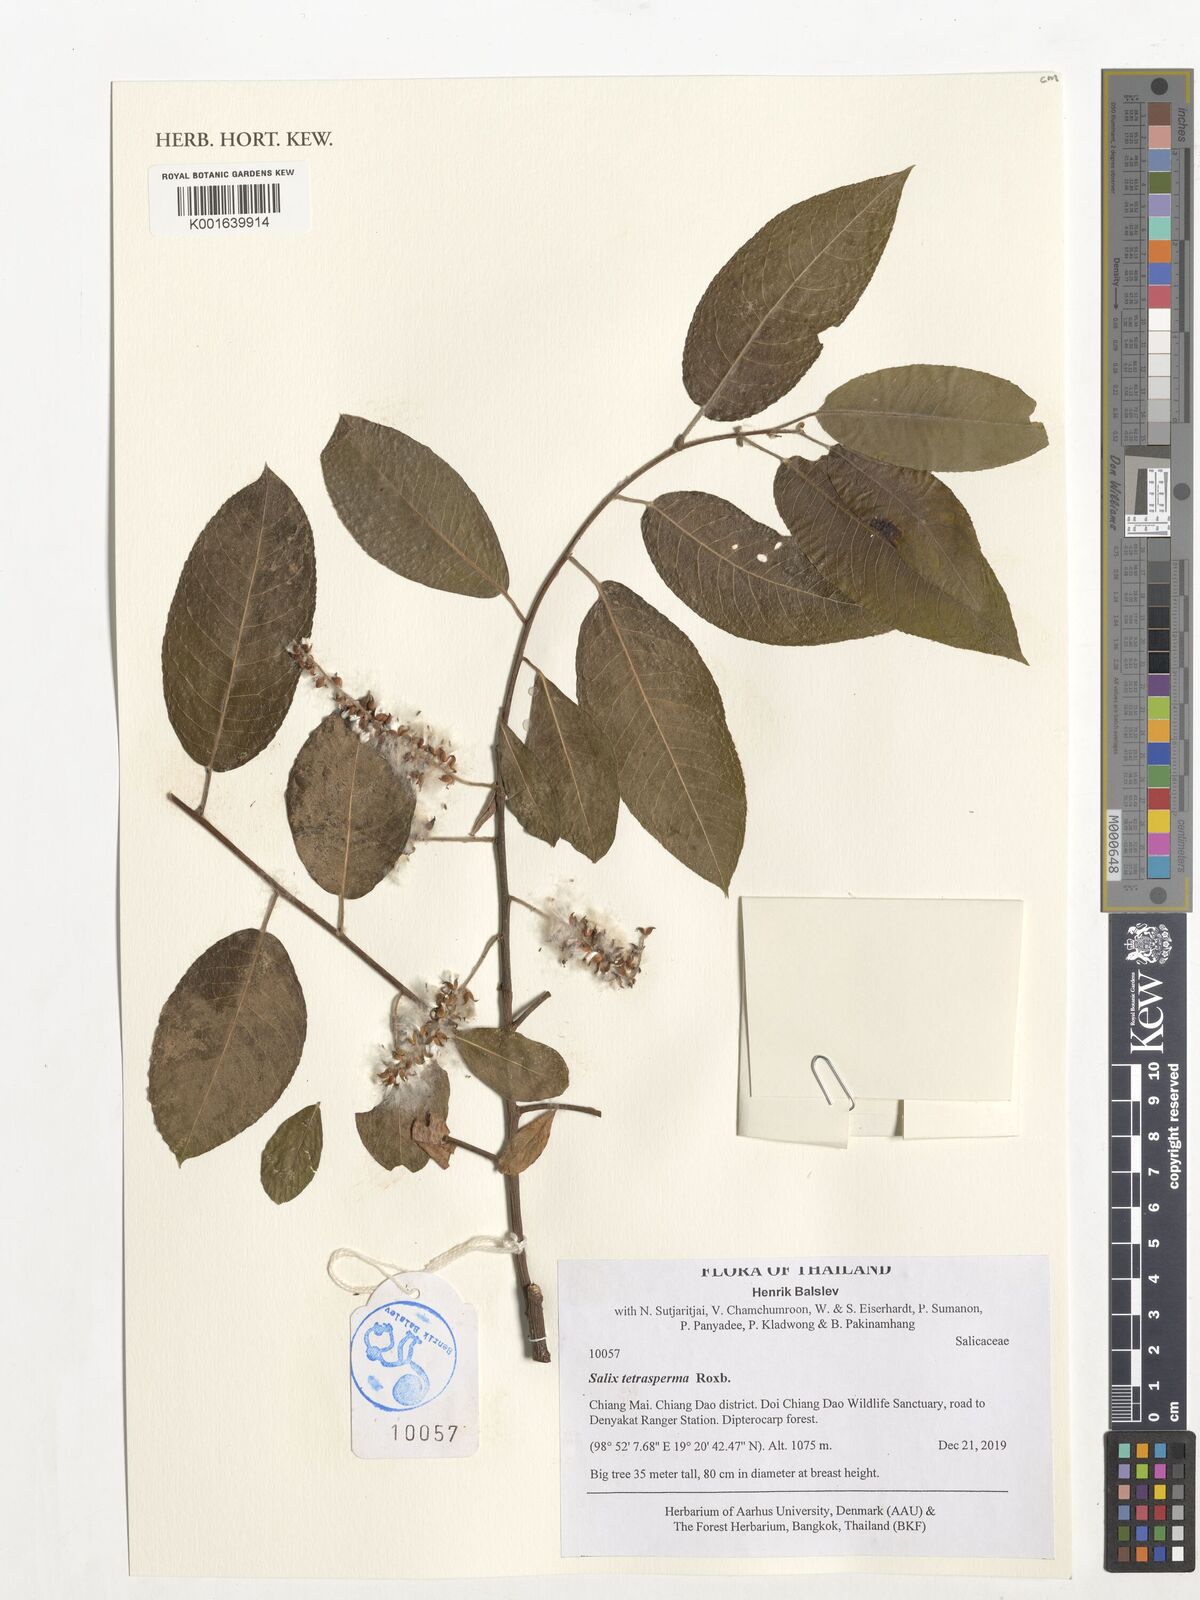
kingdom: Plantae
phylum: Tracheophyta
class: Magnoliopsida
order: Malpighiales
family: Salicaceae
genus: Salix
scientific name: Salix tetrasperma
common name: Indian willow
